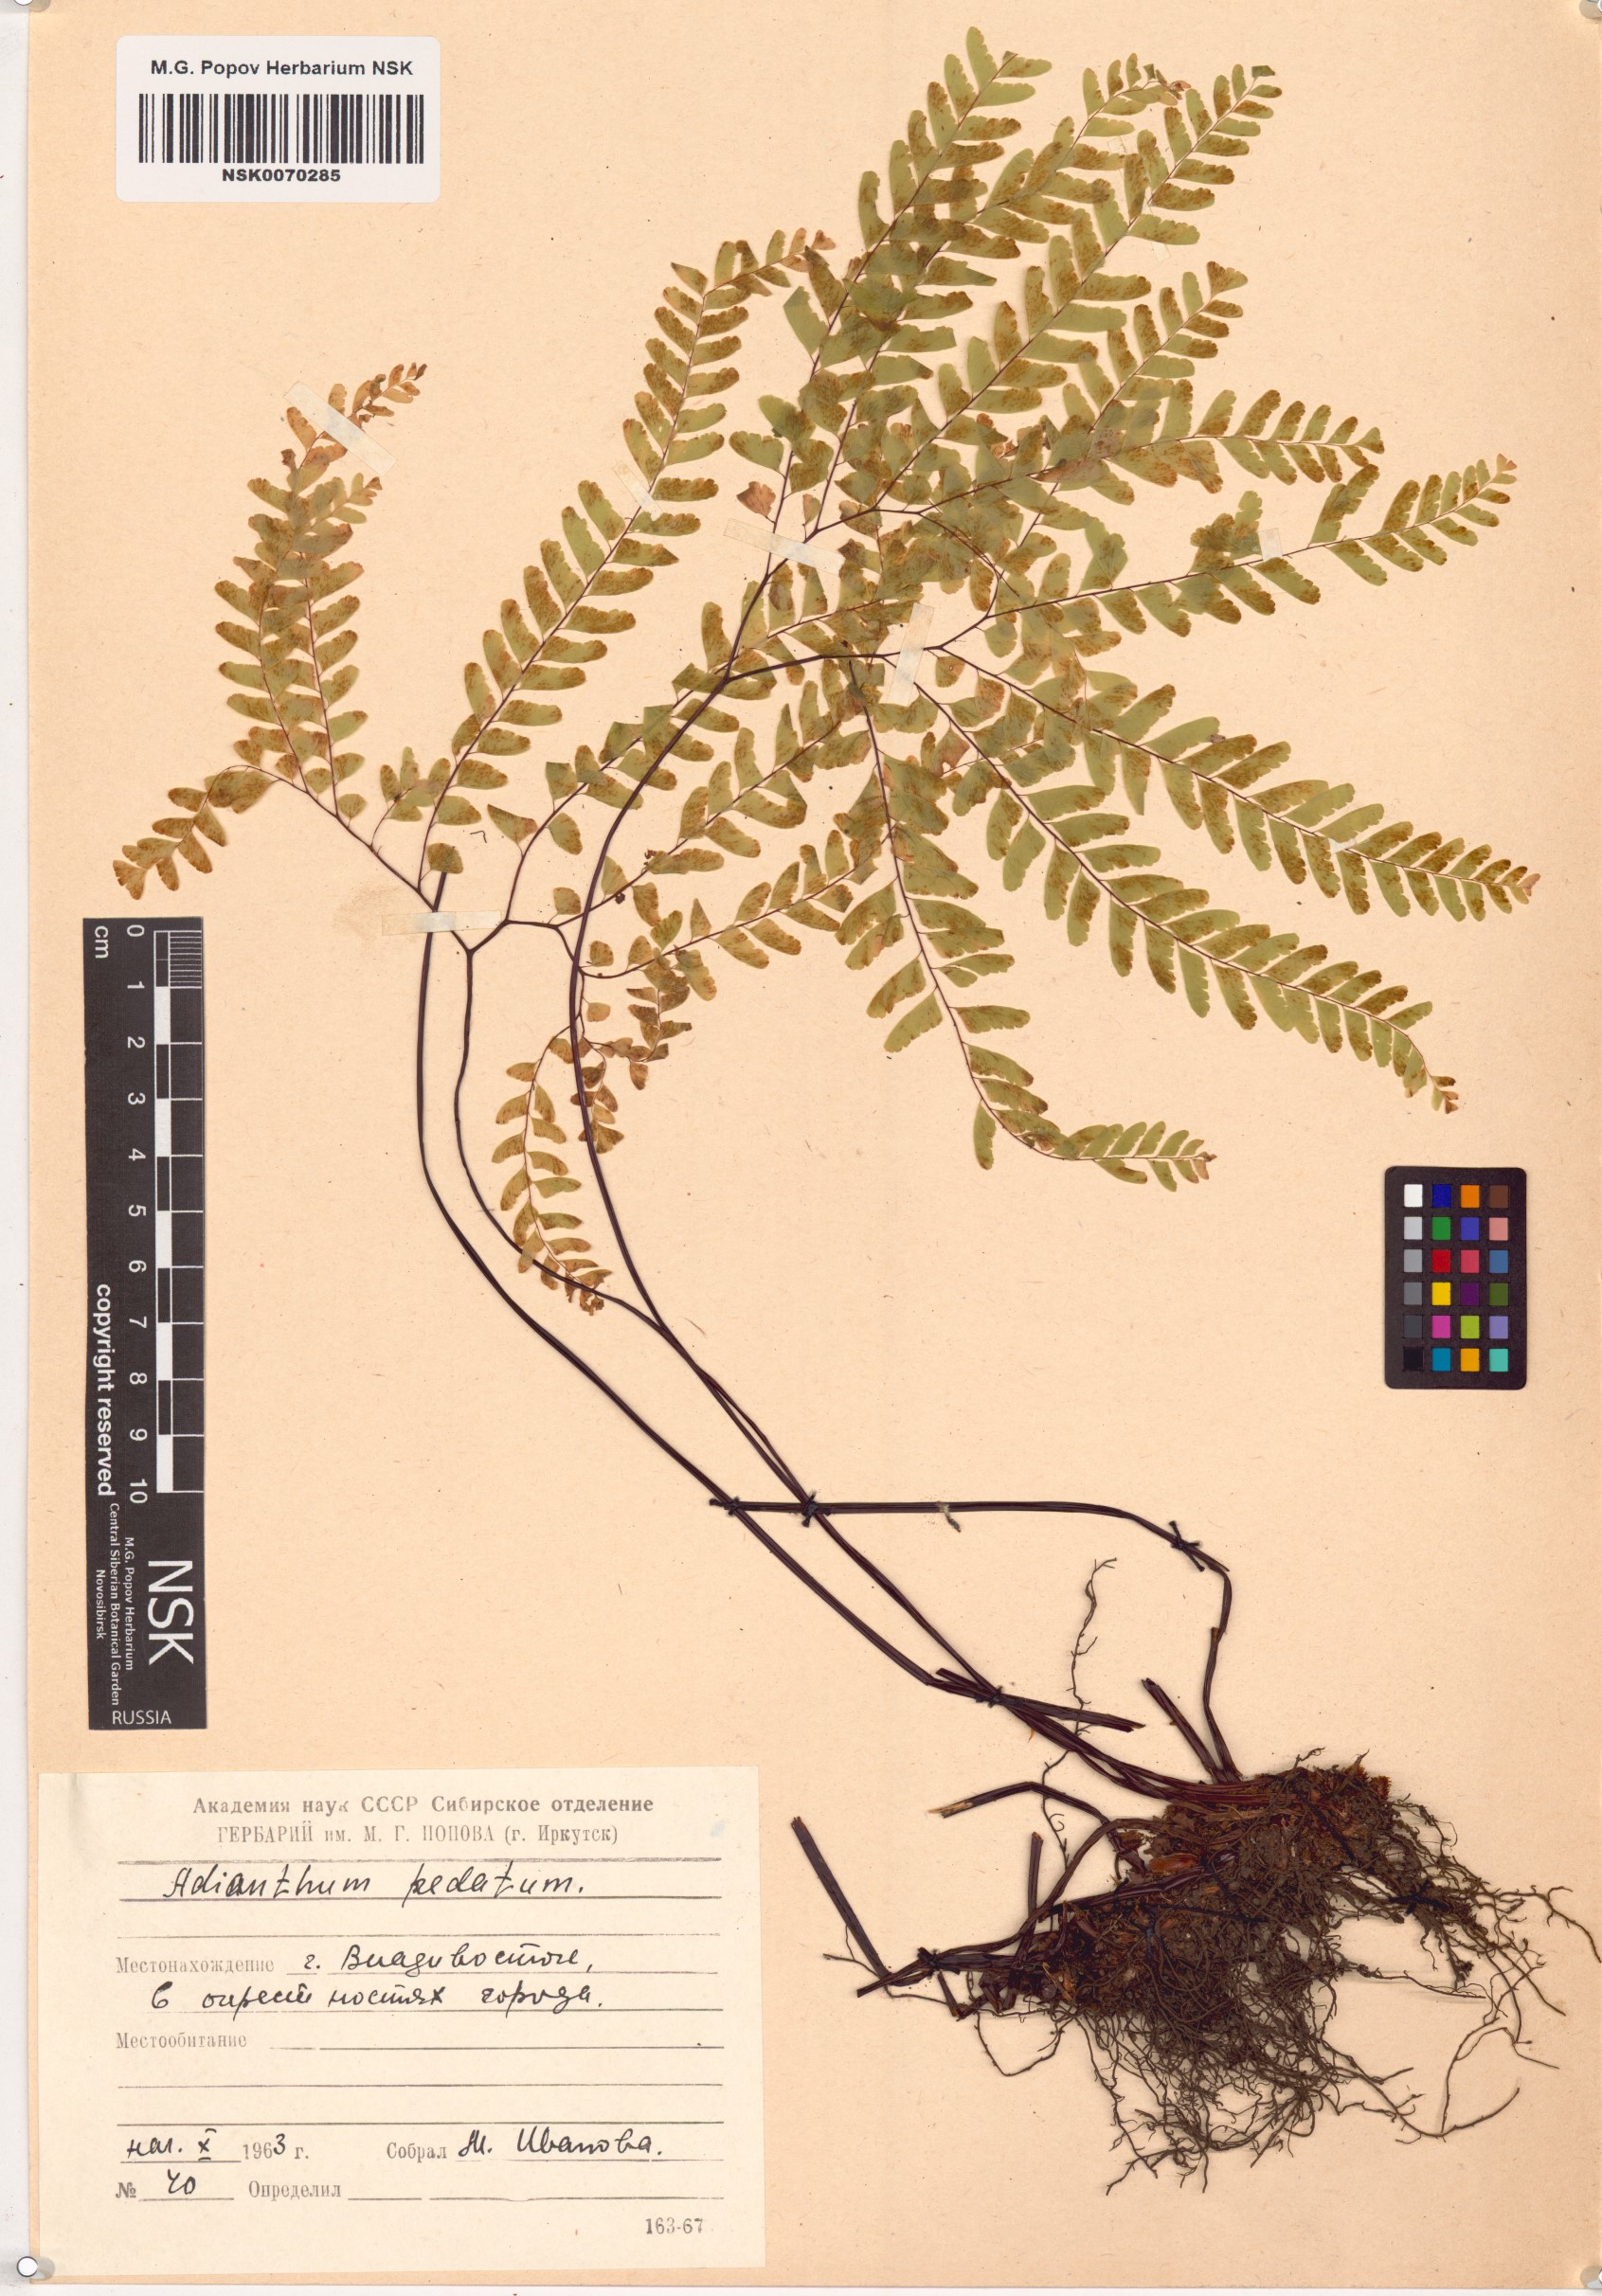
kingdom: Plantae
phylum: Tracheophyta
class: Polypodiopsida
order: Polypodiales
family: Pteridaceae
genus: Adiantum
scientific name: Adiantum pedatum
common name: Five-finger fern
